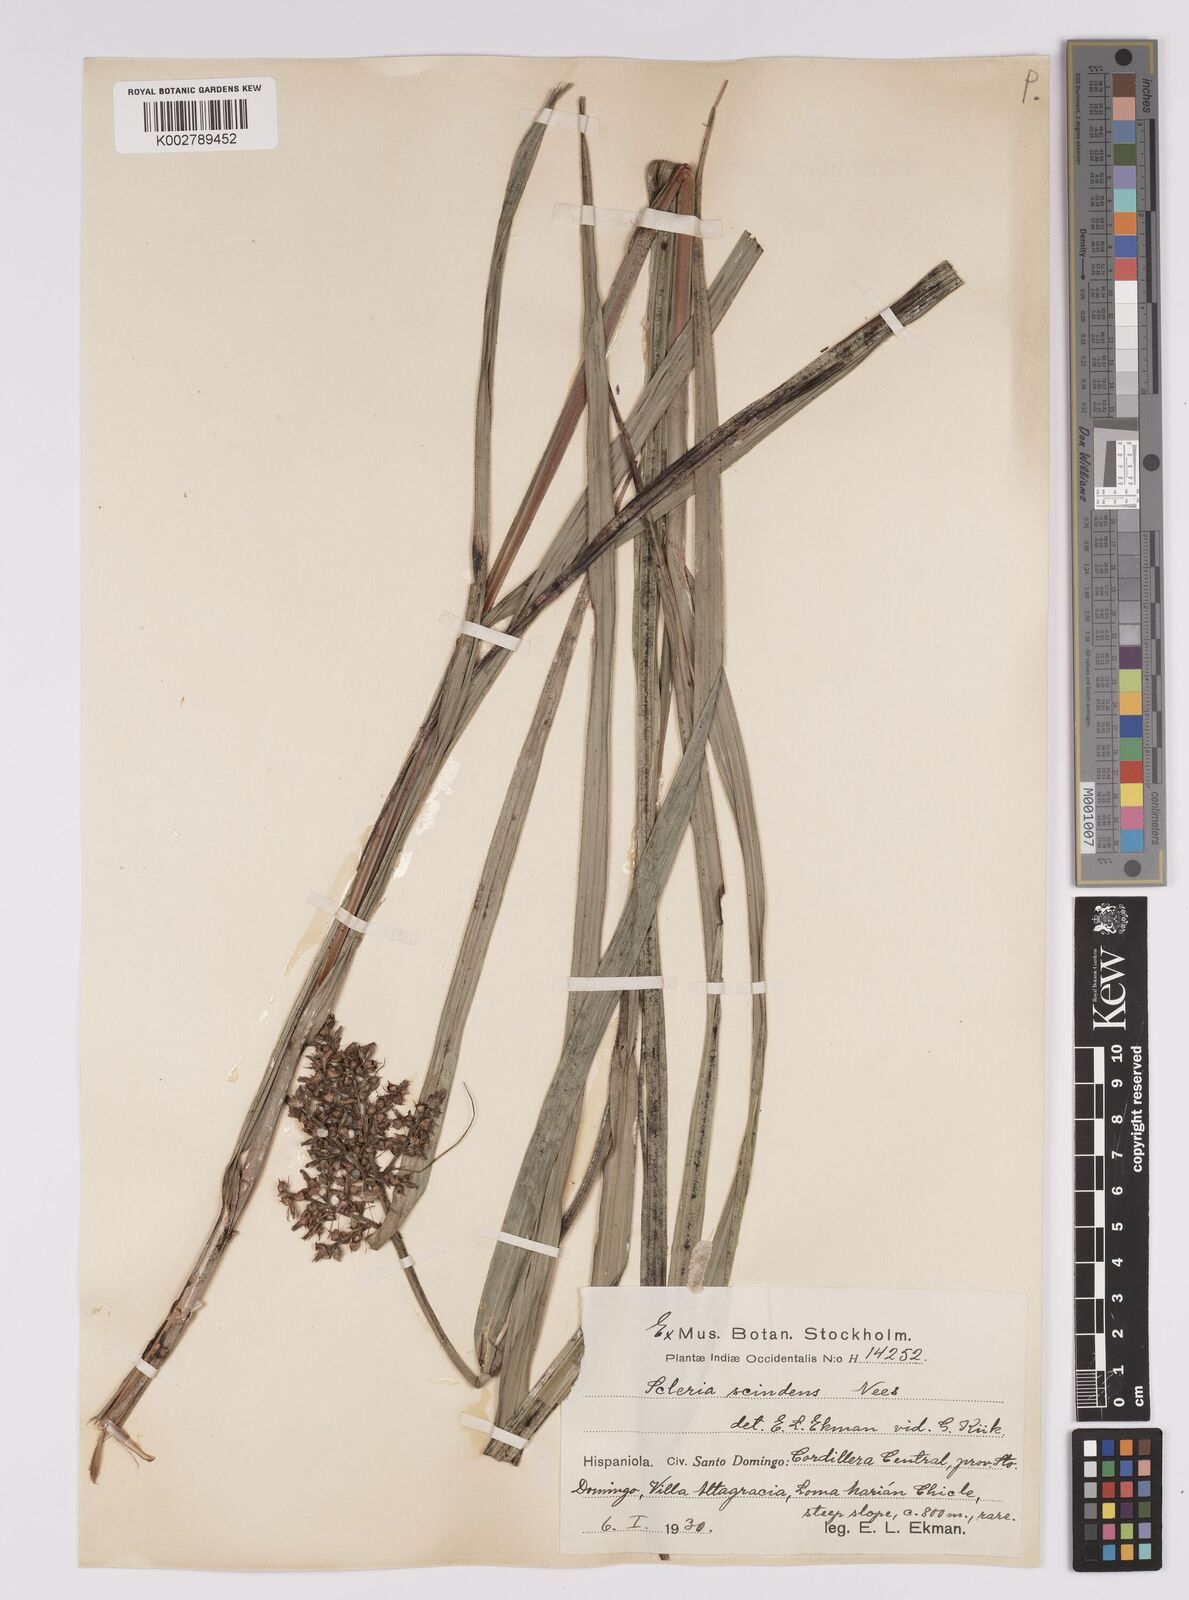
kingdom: Plantae
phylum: Tracheophyta
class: Liliopsida
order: Poales
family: Cyperaceae
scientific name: Cyperaceae
